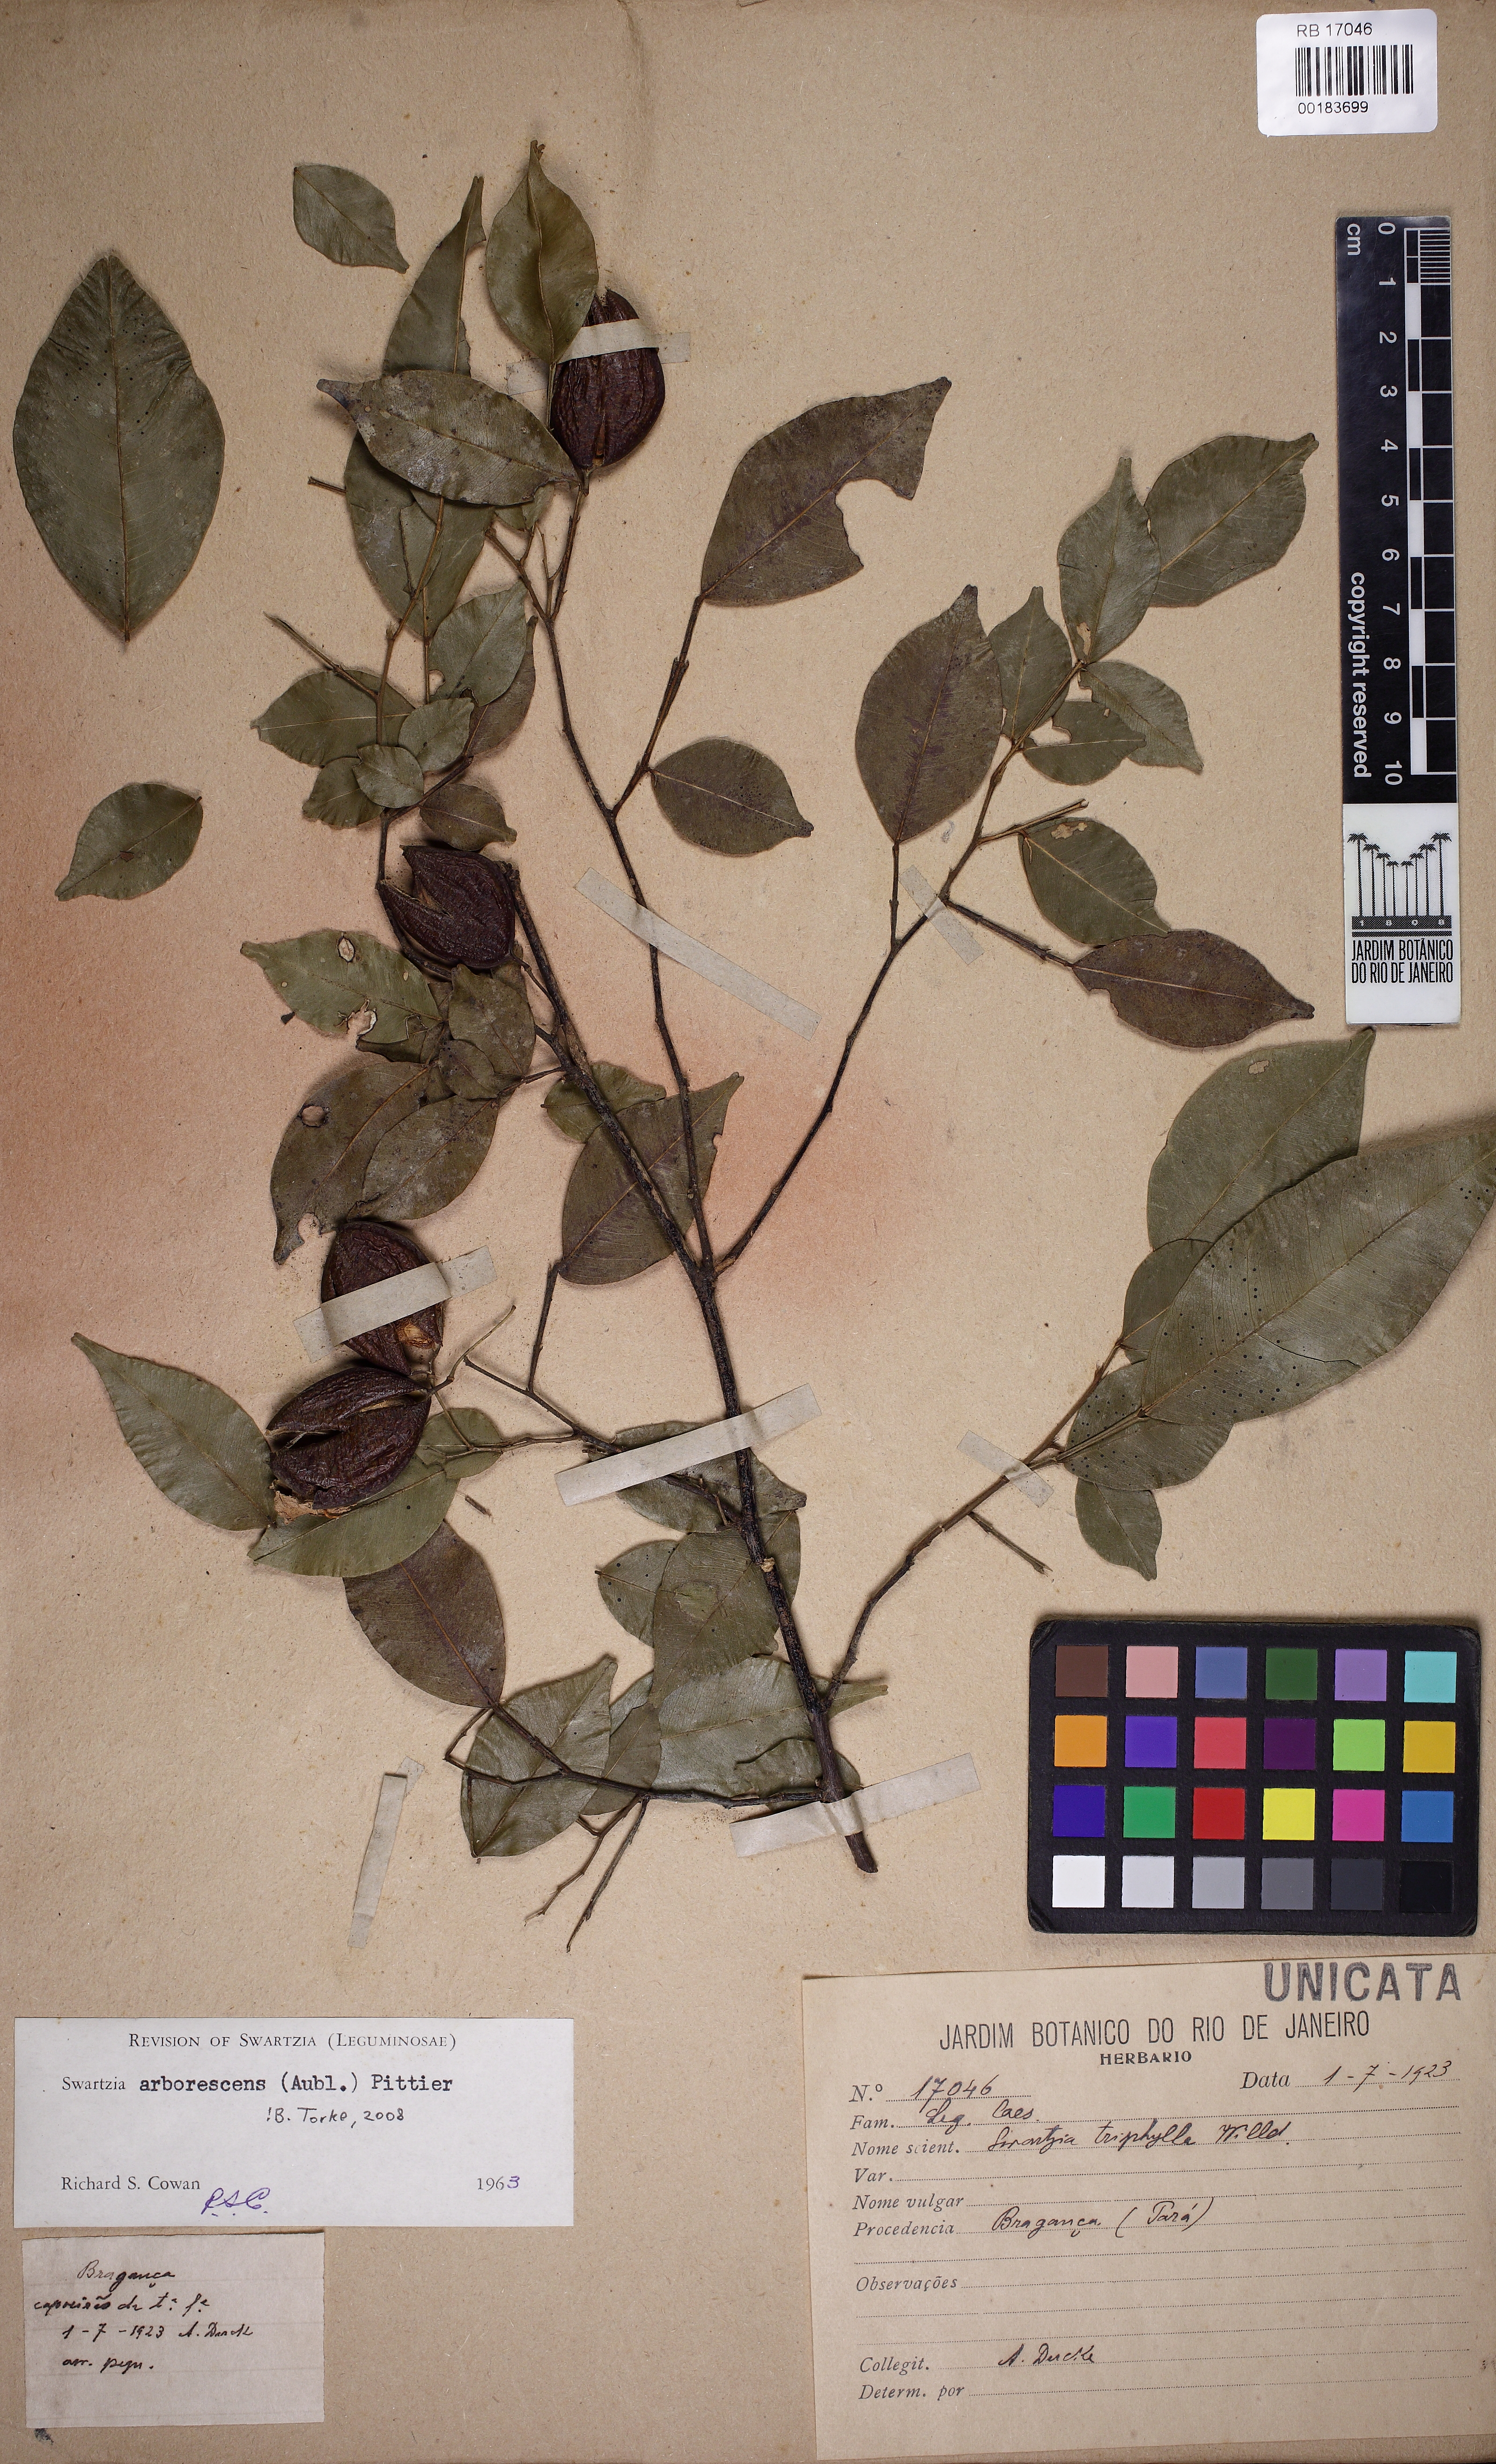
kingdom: Plantae
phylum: Tracheophyta
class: Magnoliopsida
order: Fabales
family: Fabaceae
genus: Swartzia
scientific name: Swartzia arborescens
